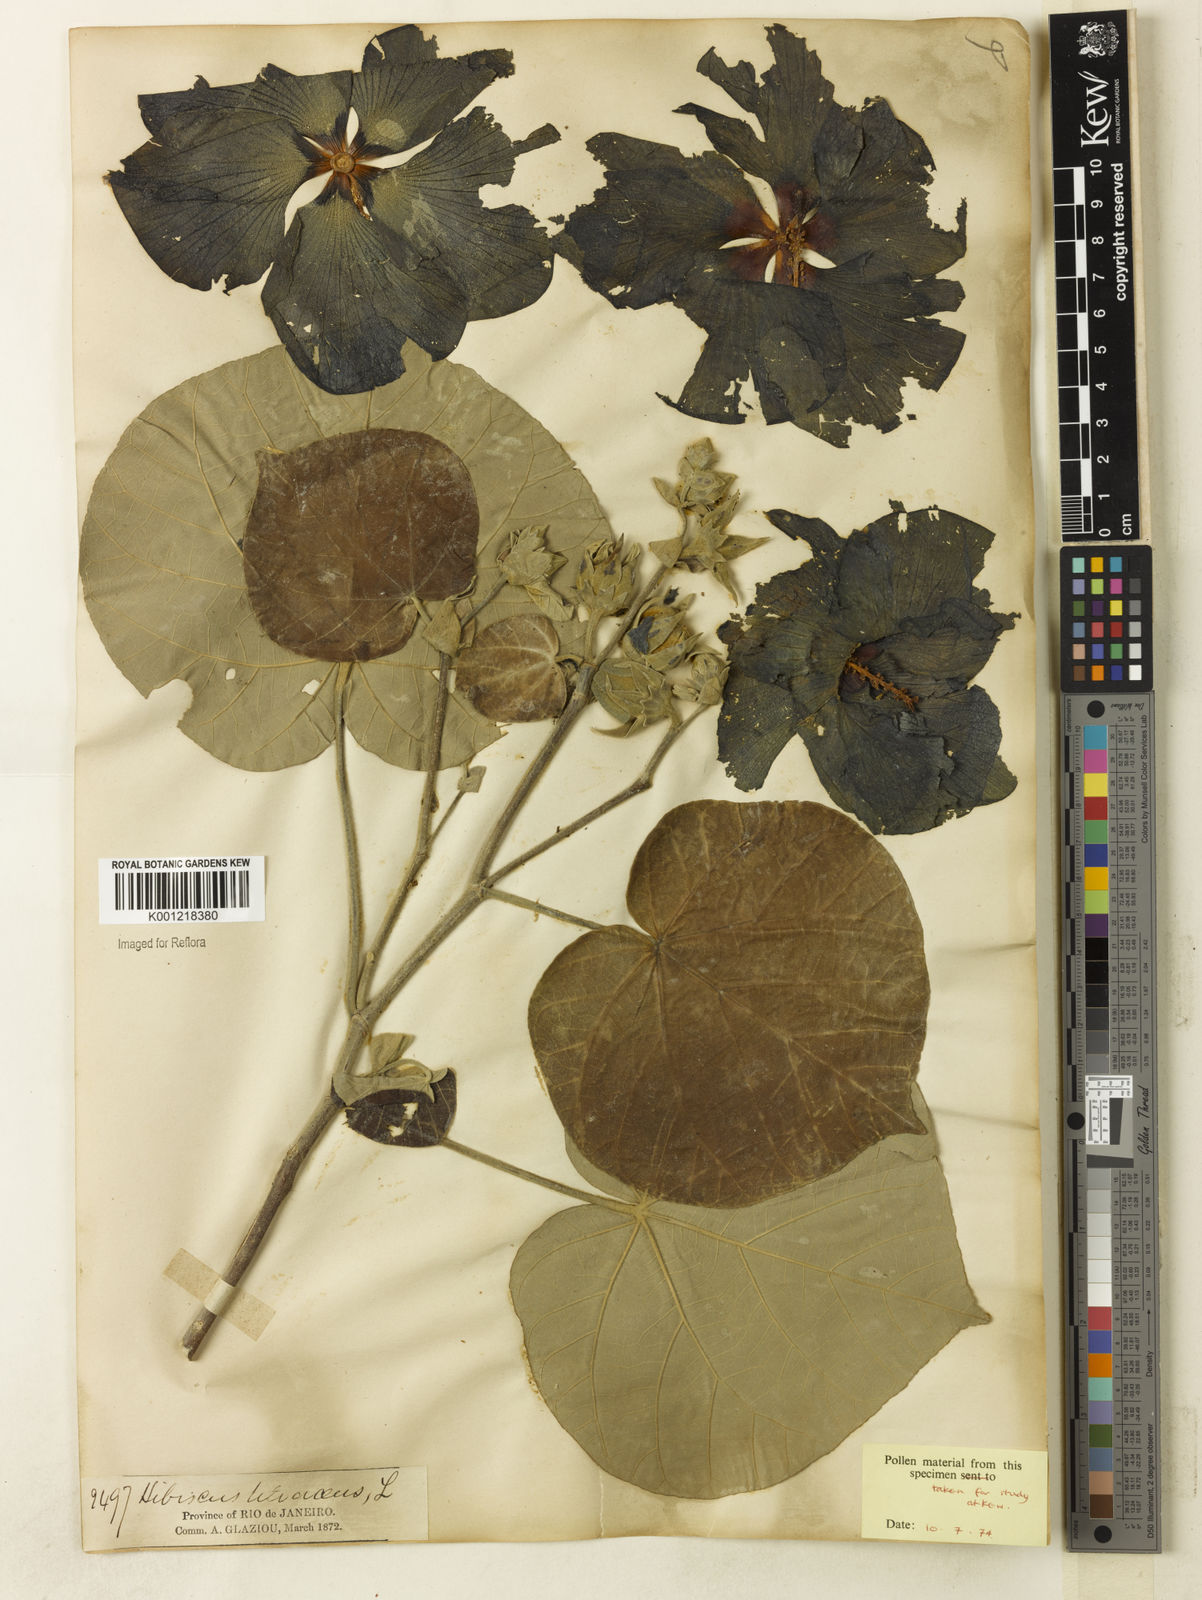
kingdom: Plantae
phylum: Tracheophyta
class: Magnoliopsida
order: Malvales
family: Malvaceae
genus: Hibiscus
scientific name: Hibiscus
